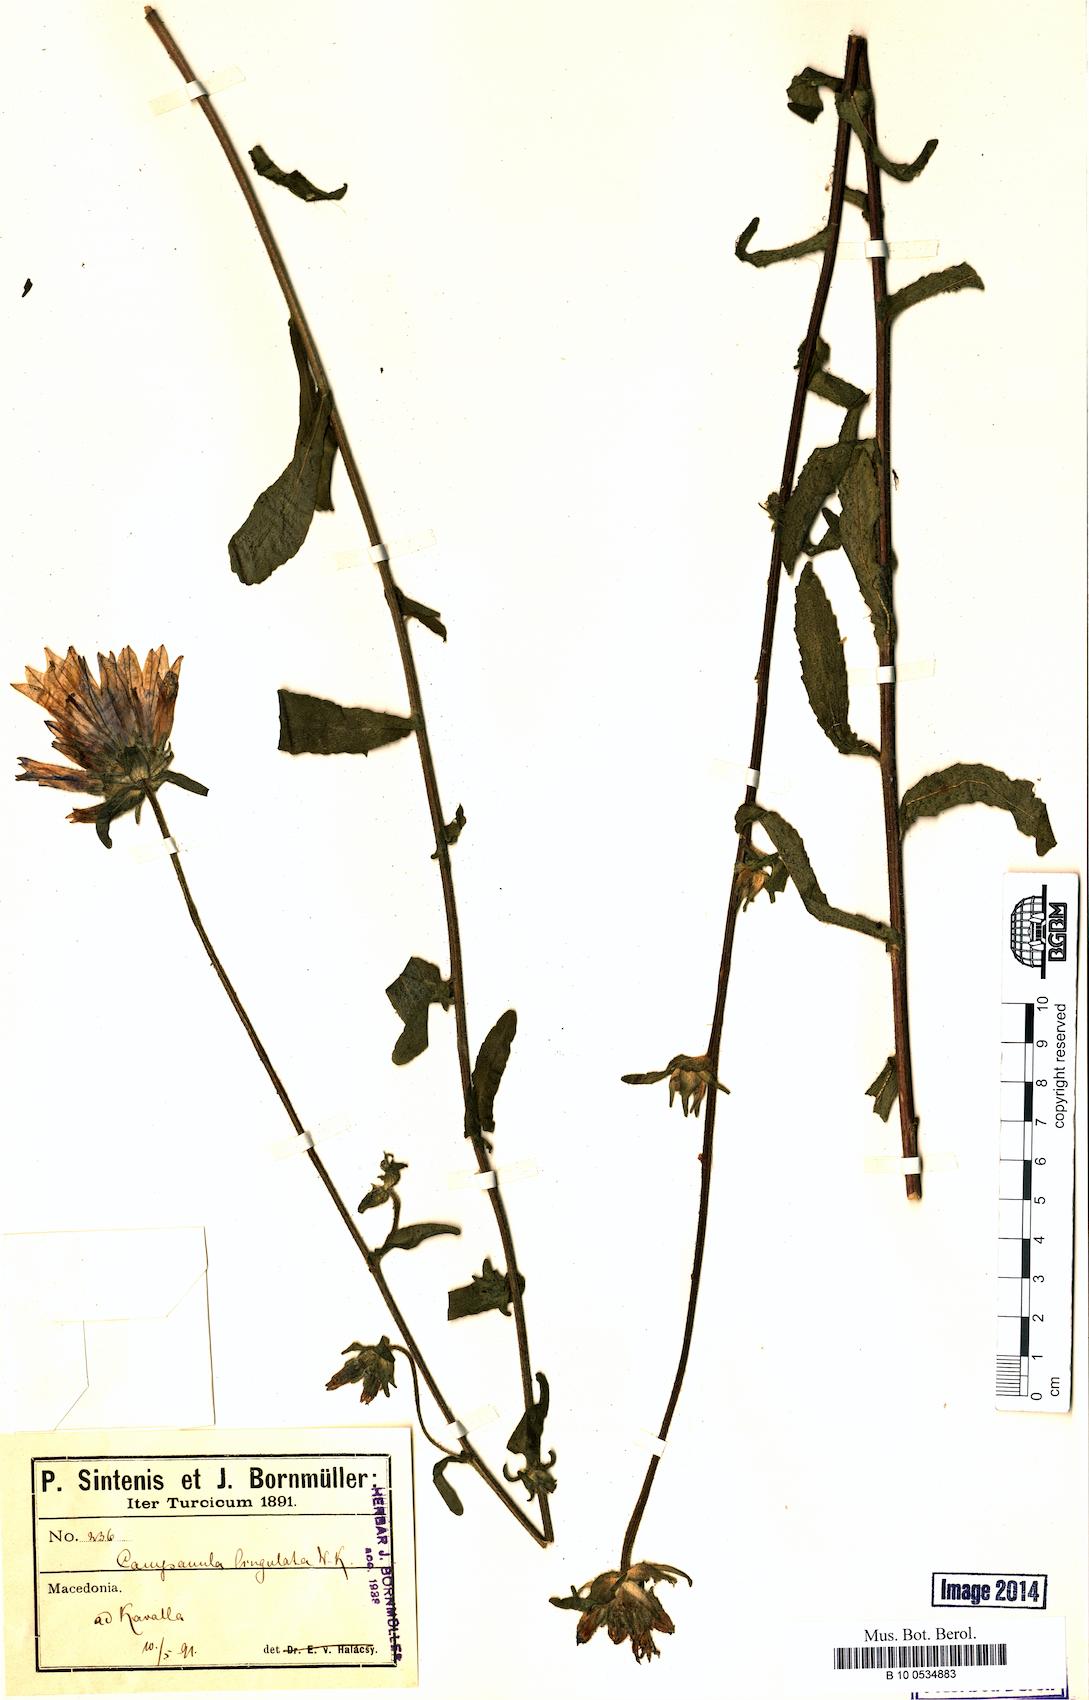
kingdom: Plantae
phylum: Tracheophyta
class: Magnoliopsida
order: Asterales
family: Campanulaceae
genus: Campanula
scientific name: Campanula lingulata
